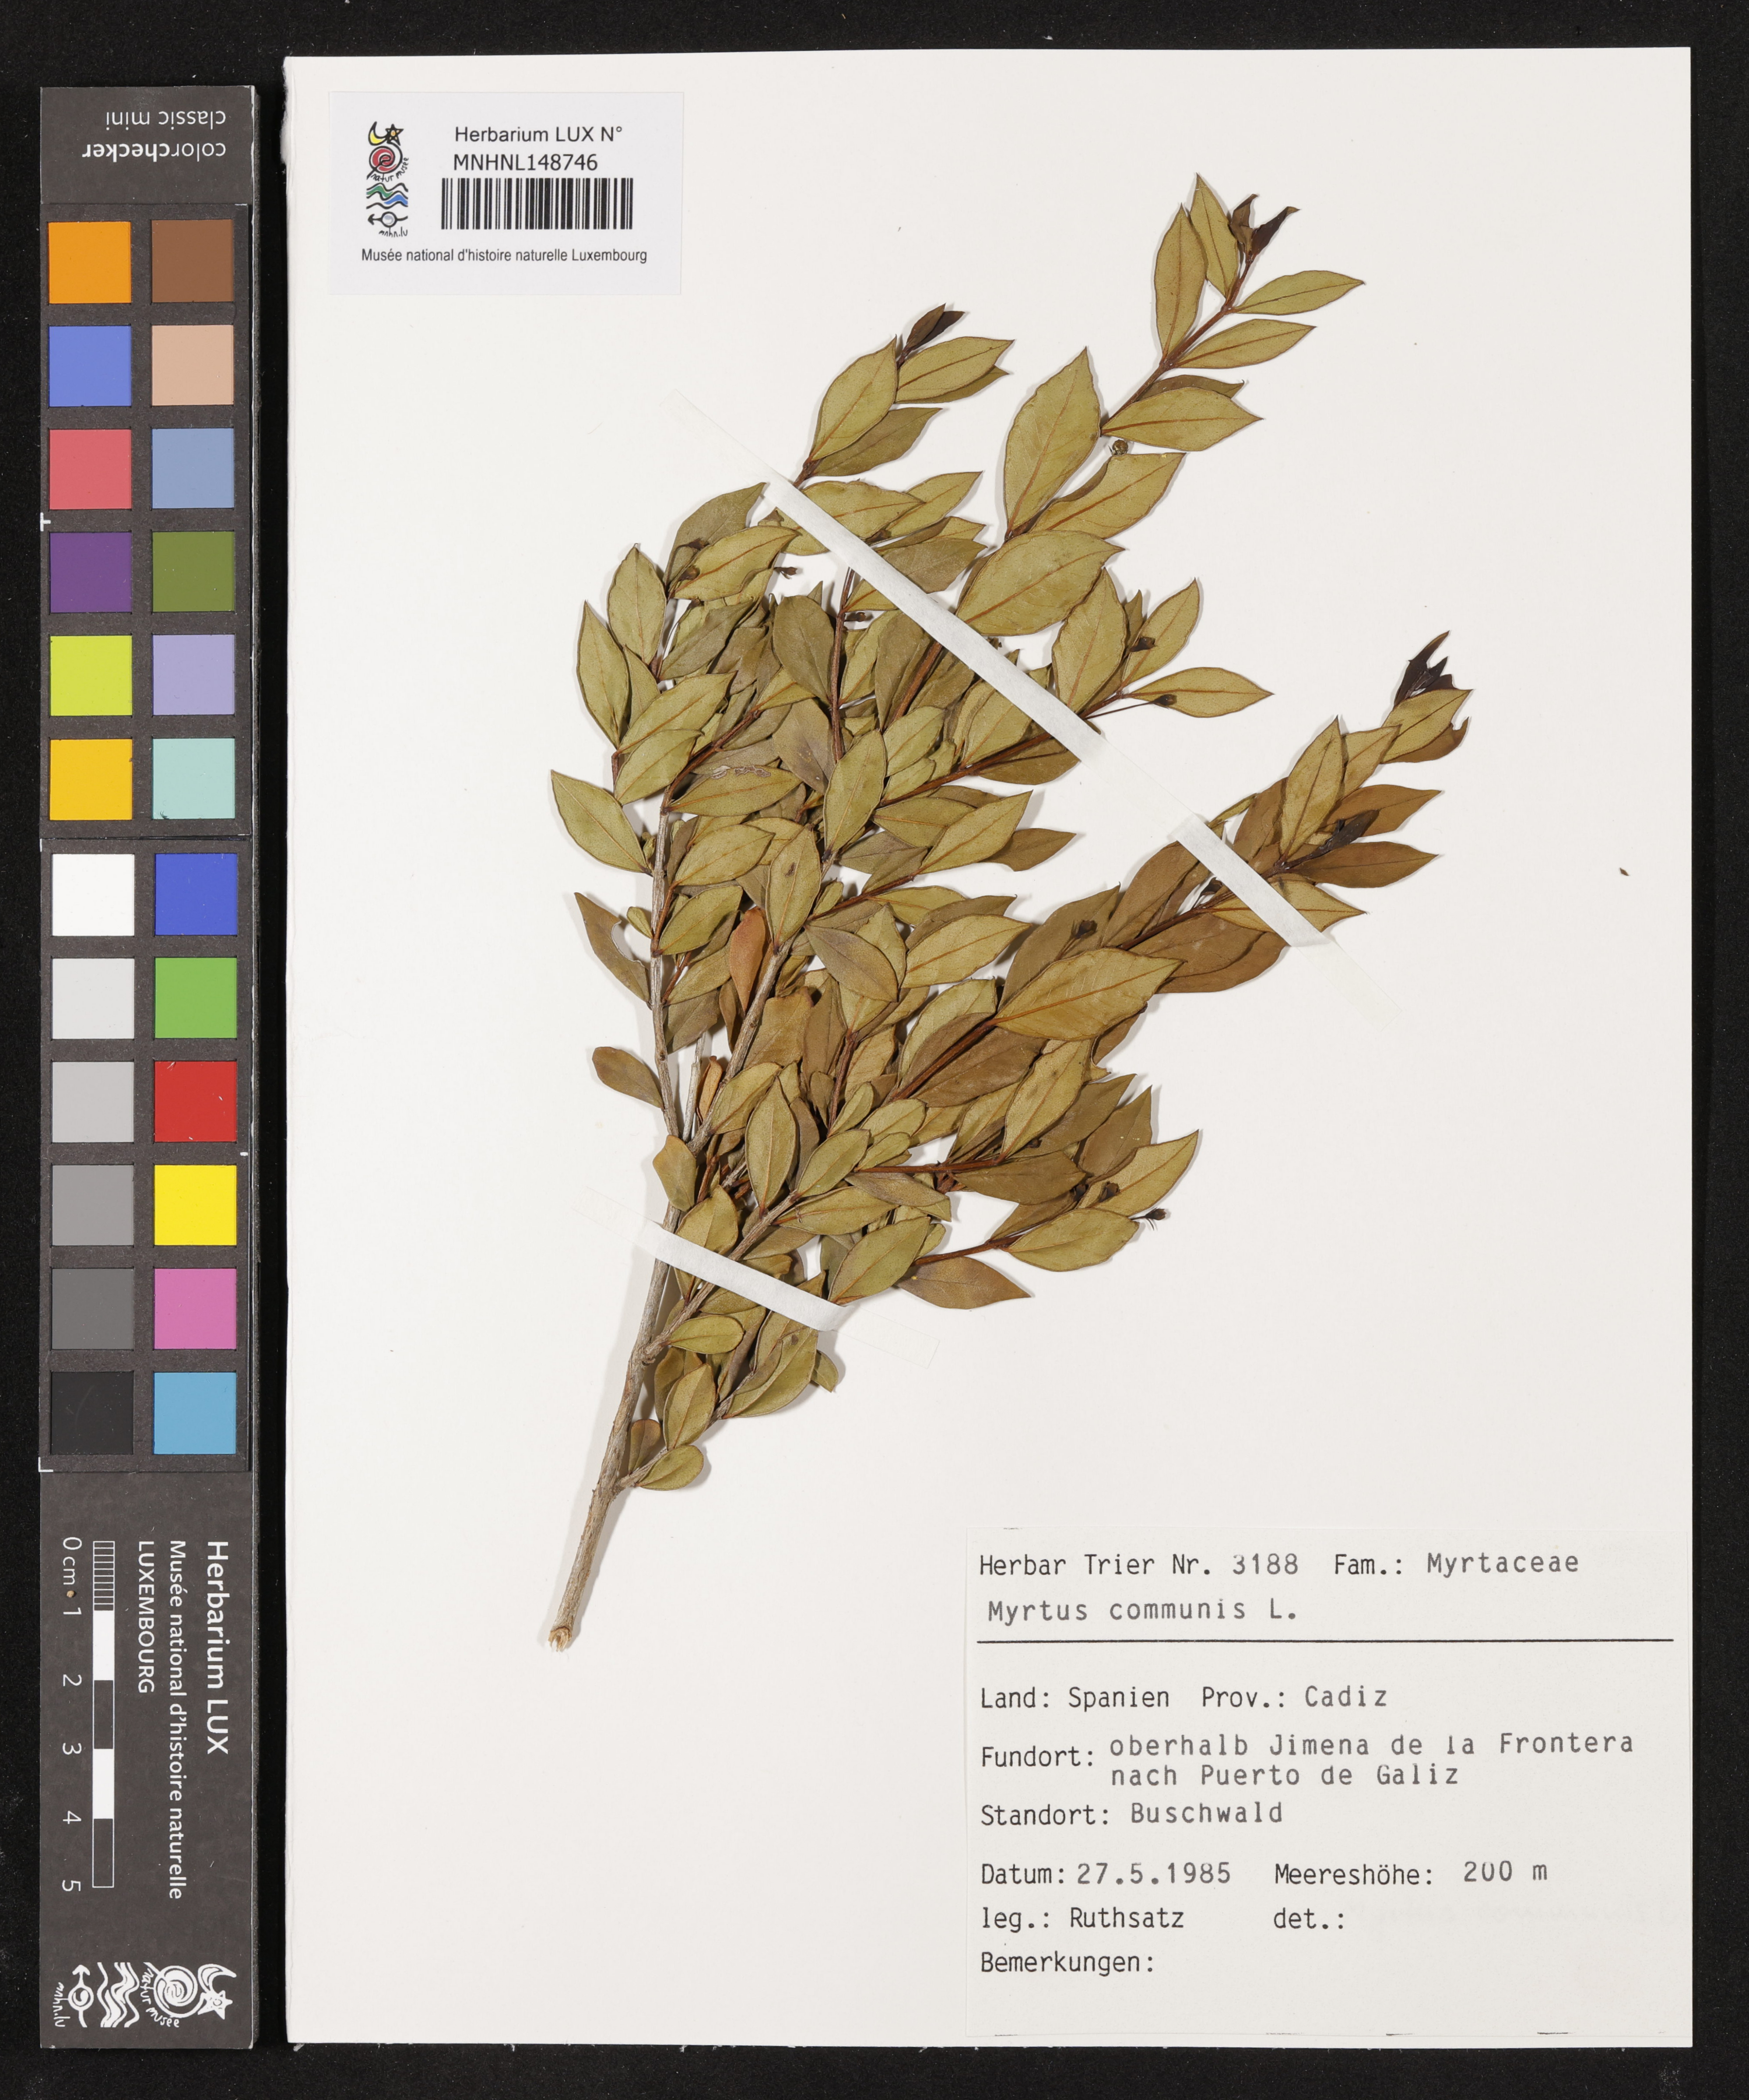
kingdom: Plantae
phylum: Tracheophyta
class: Magnoliopsida
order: Myrtales
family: Myrtaceae
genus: Myrtus
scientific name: Myrtus communis
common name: Myrtle
